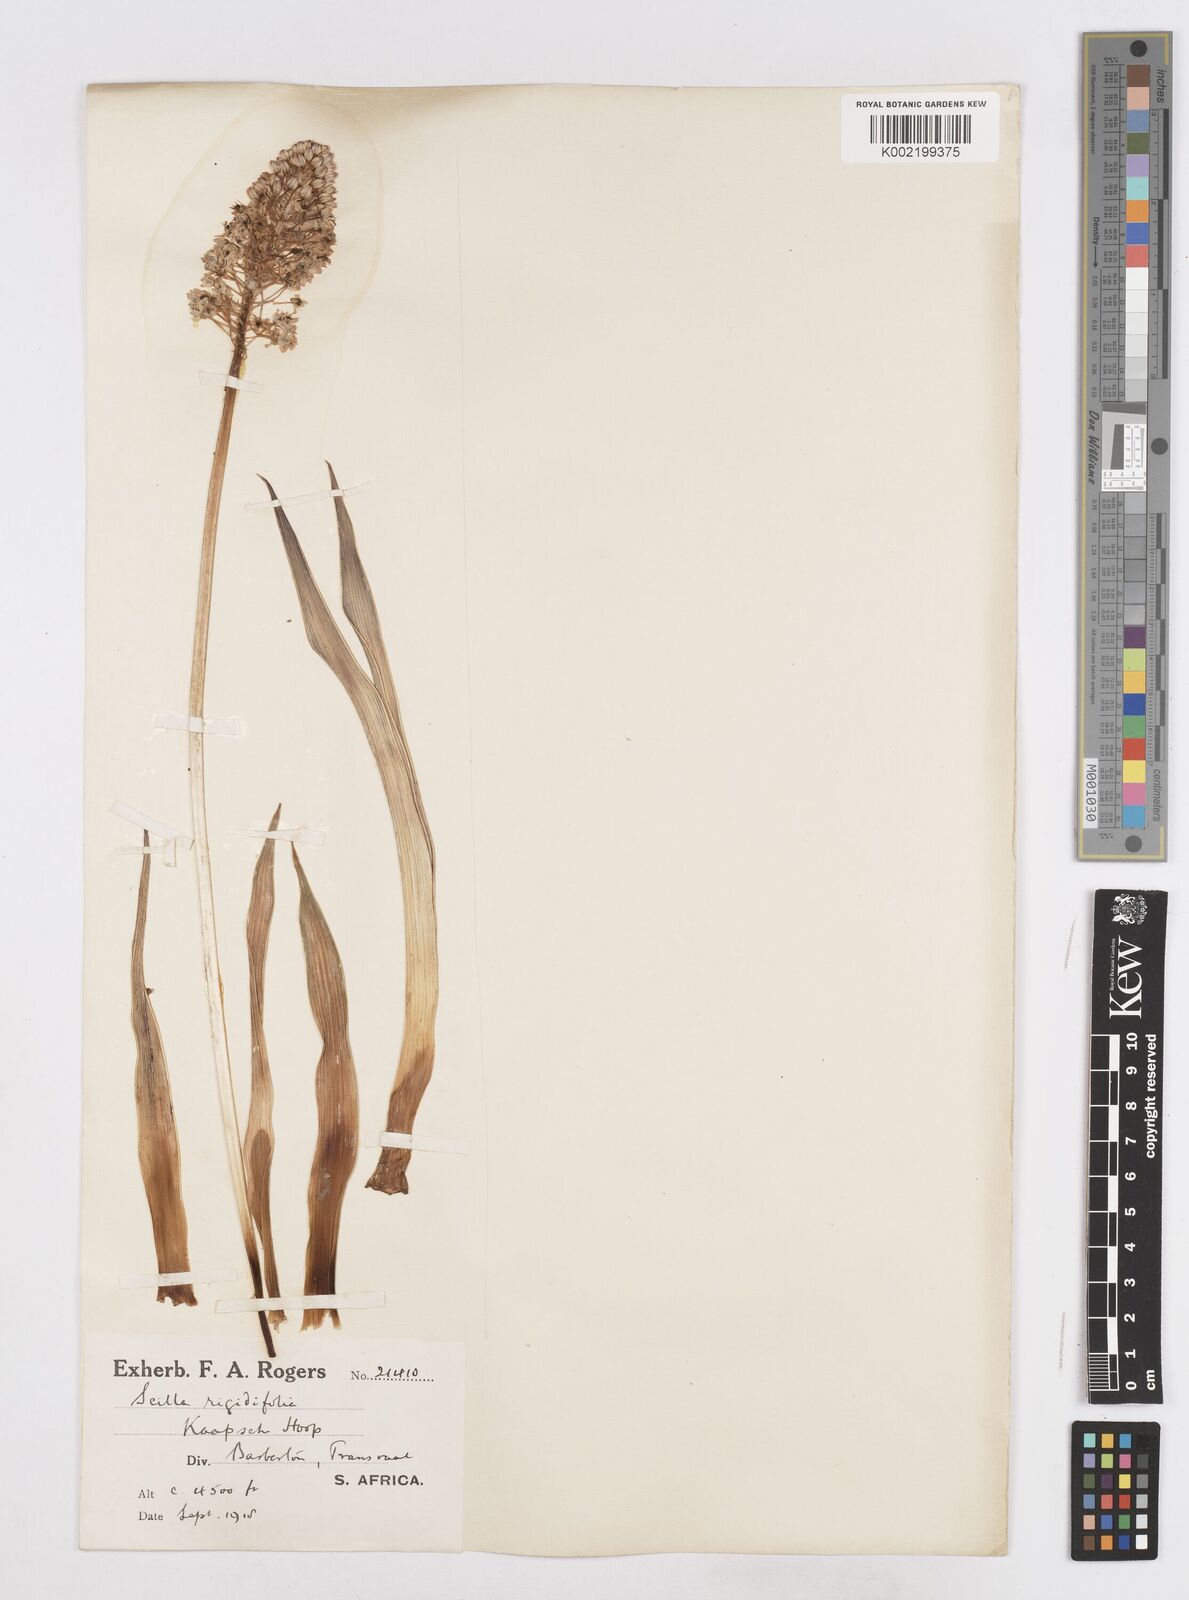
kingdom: Plantae
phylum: Tracheophyta
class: Liliopsida
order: Asparagales
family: Asparagaceae
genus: Schizocarphus
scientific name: Schizocarphus nervosus
